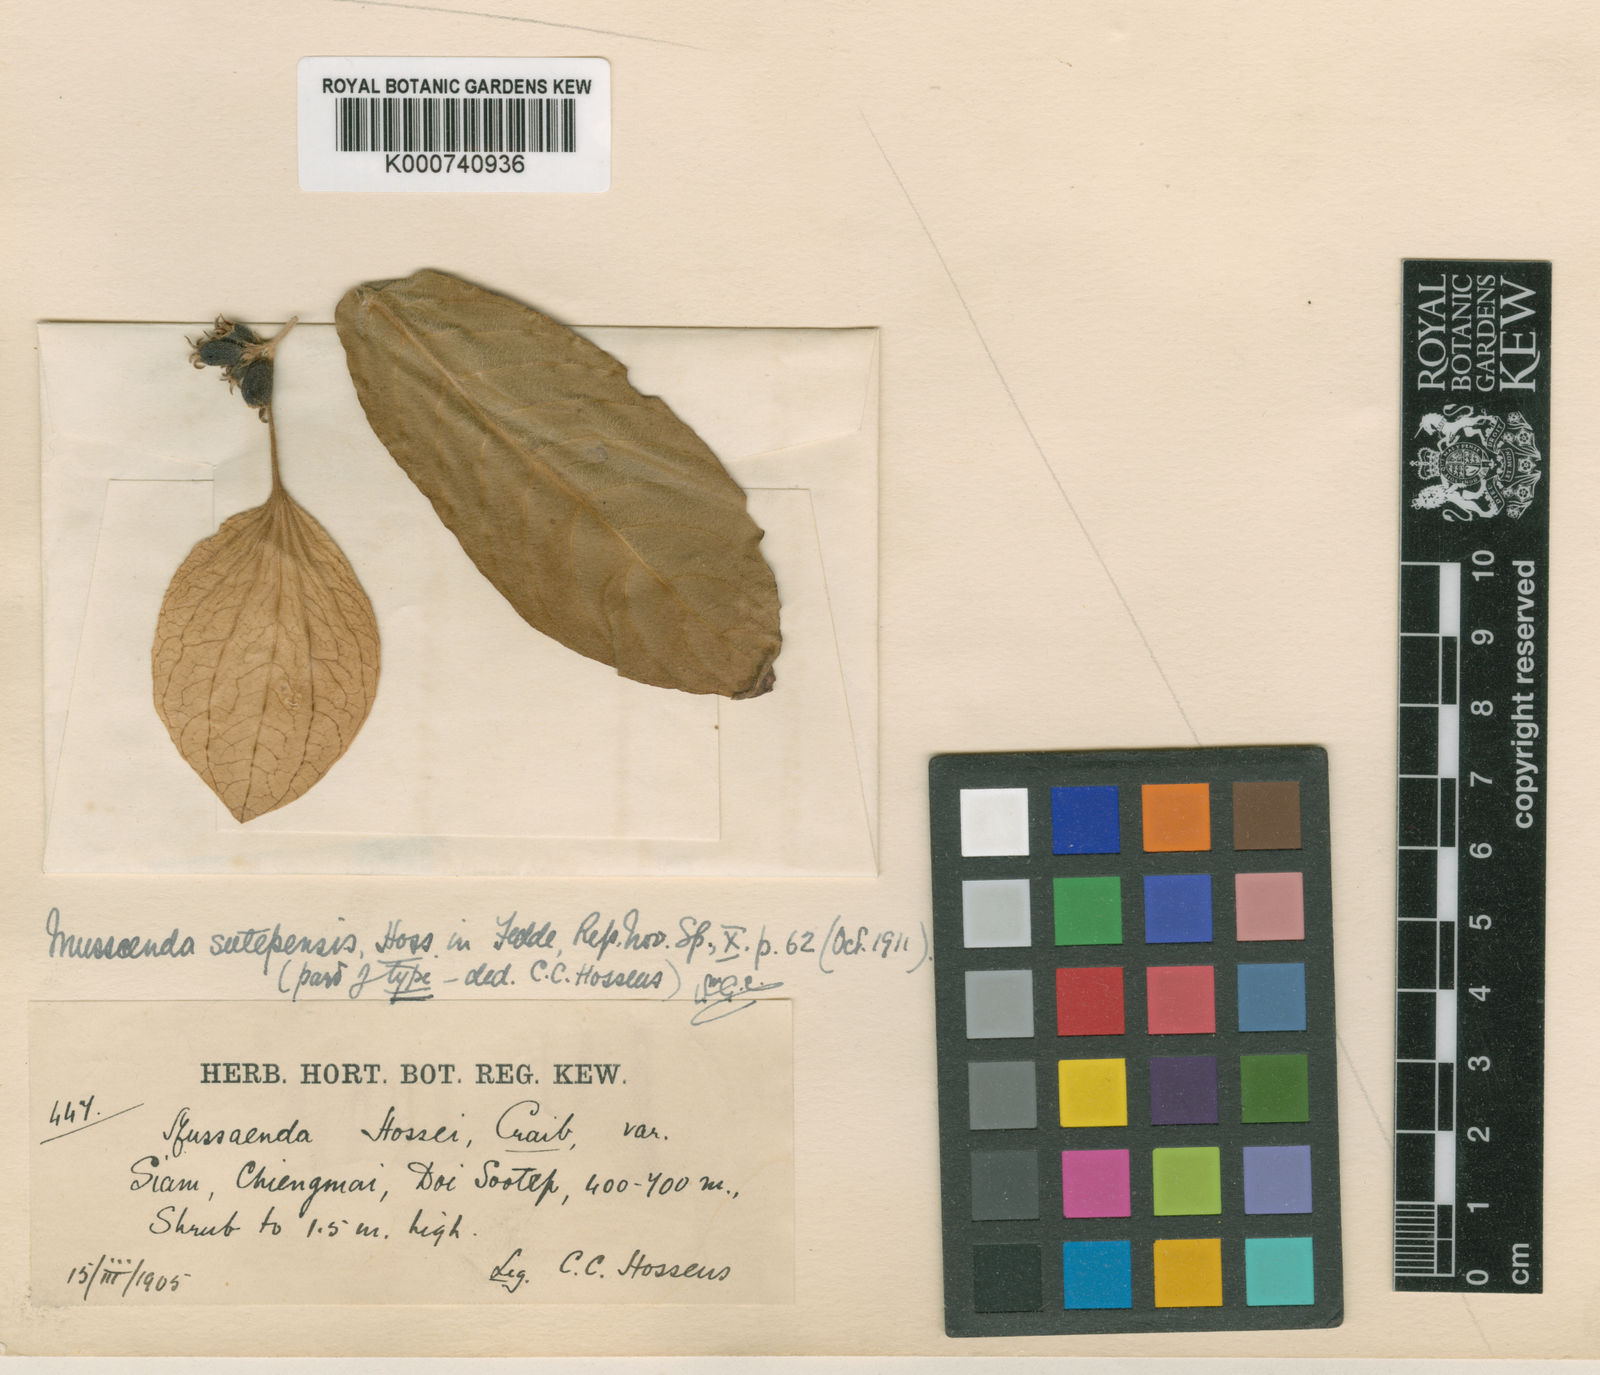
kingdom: Plantae
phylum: Tracheophyta
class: Magnoliopsida
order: Gentianales
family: Rubiaceae
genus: Mussaenda
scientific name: Mussaenda sanderiana
